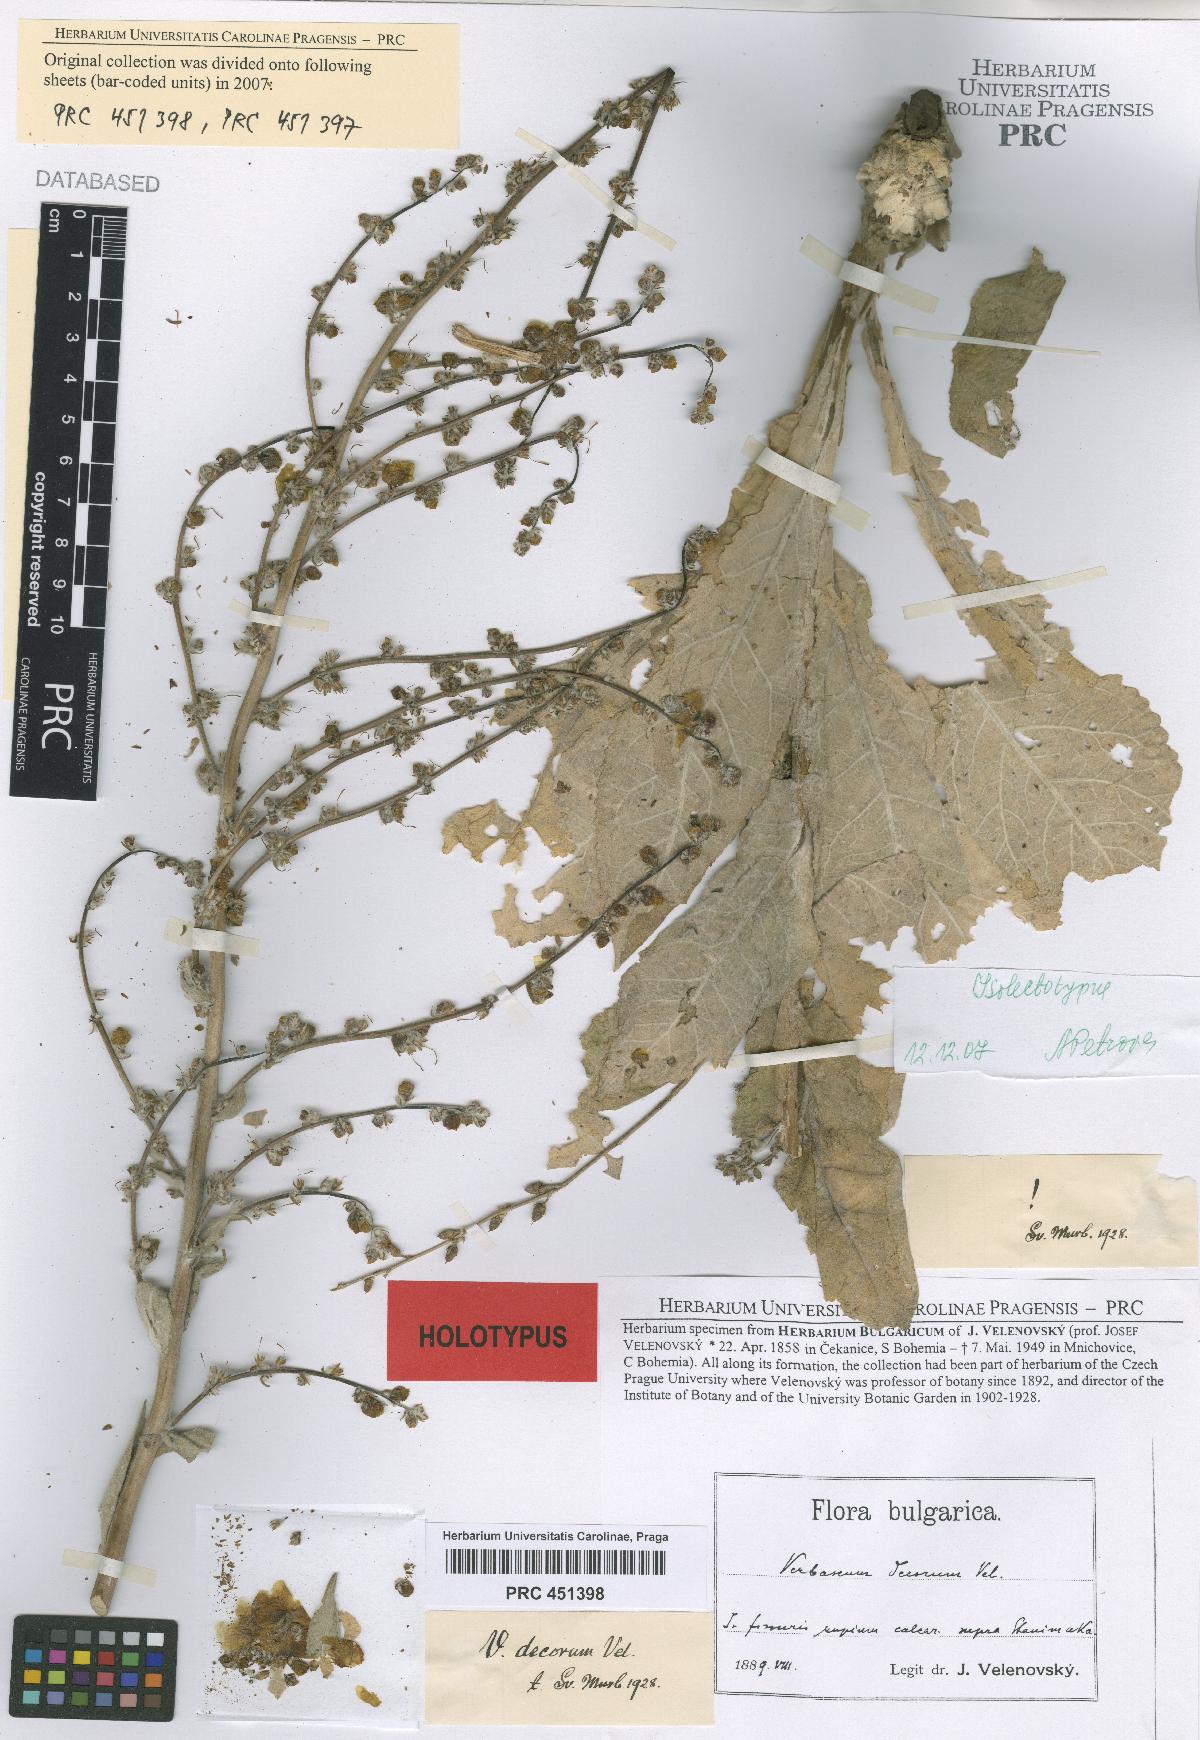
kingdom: Plantae
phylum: Tracheophyta
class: Magnoliopsida
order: Lamiales
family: Scrophulariaceae
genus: Verbascum
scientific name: Verbascum decorum
